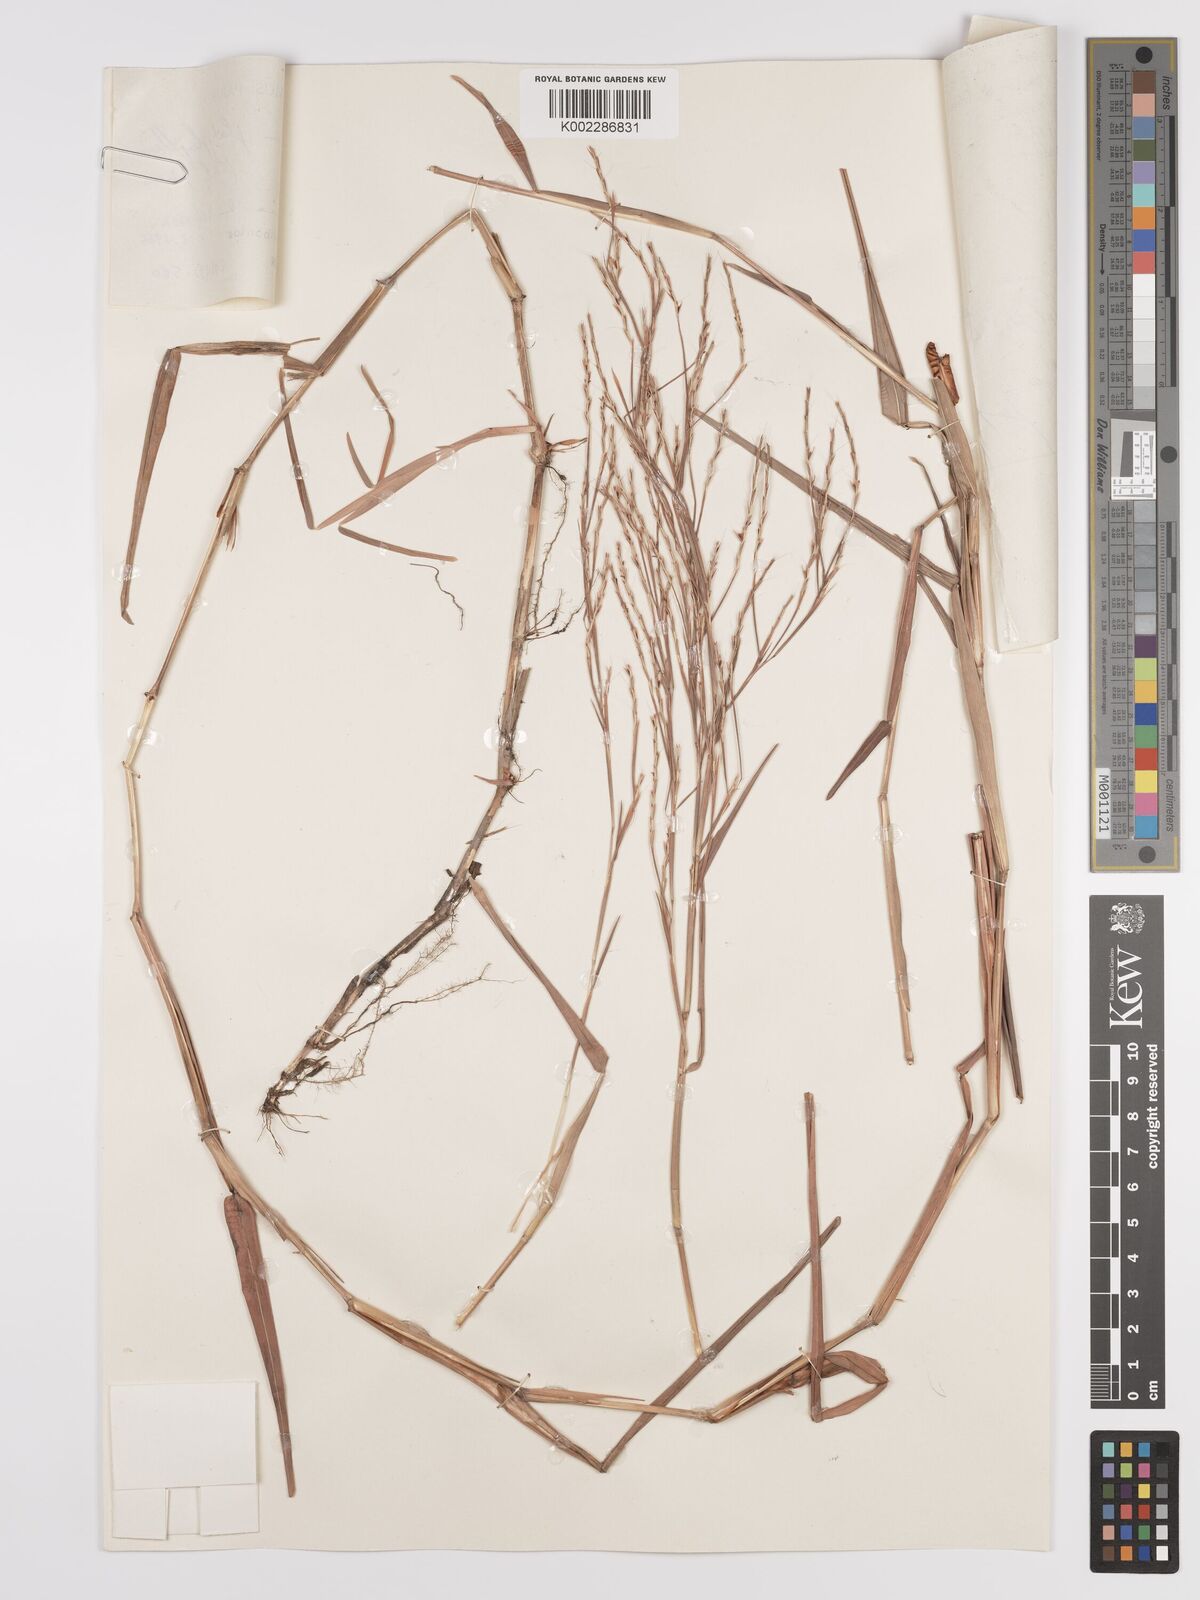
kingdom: Plantae
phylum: Tracheophyta
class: Liliopsida
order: Poales
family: Poaceae
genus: Schizachyrium
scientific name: Schizachyrium platyphyllum
